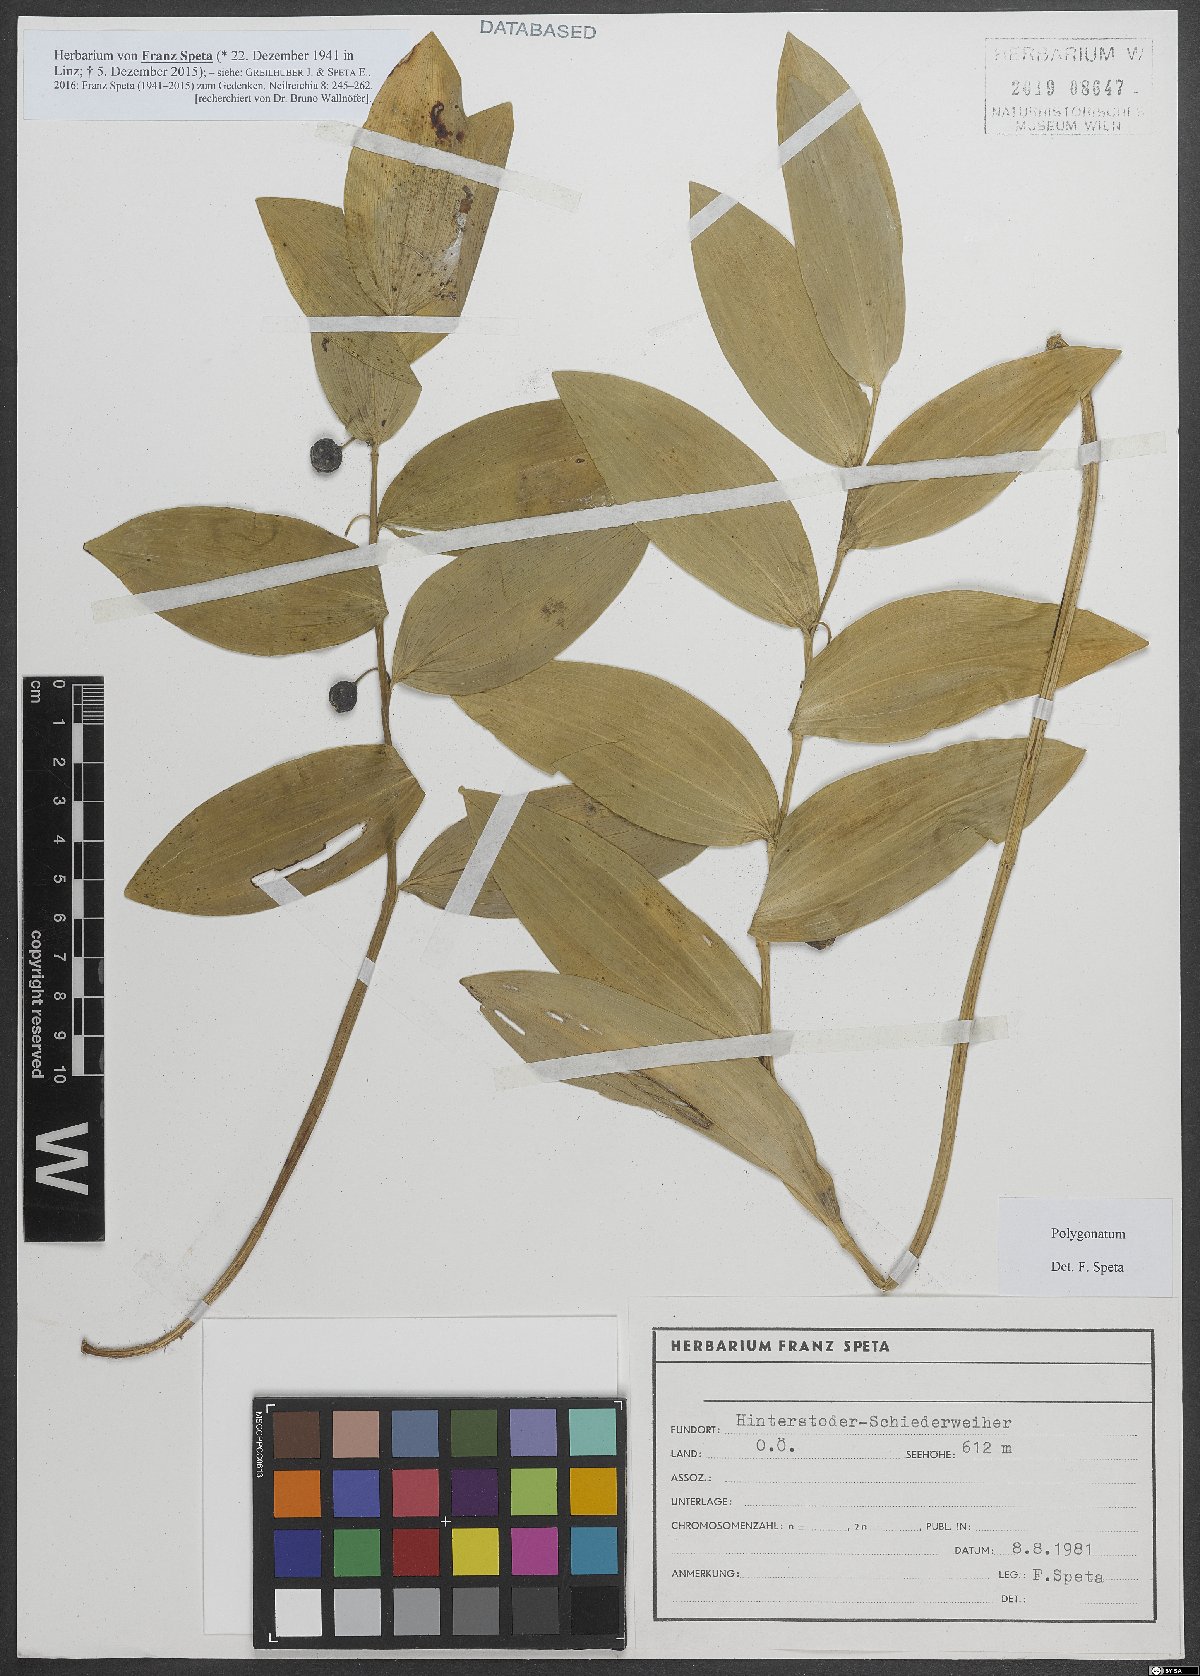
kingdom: Plantae
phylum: Tracheophyta
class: Liliopsida
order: Asparagales
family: Asparagaceae
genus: Polygonatum
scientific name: Polygonatum
